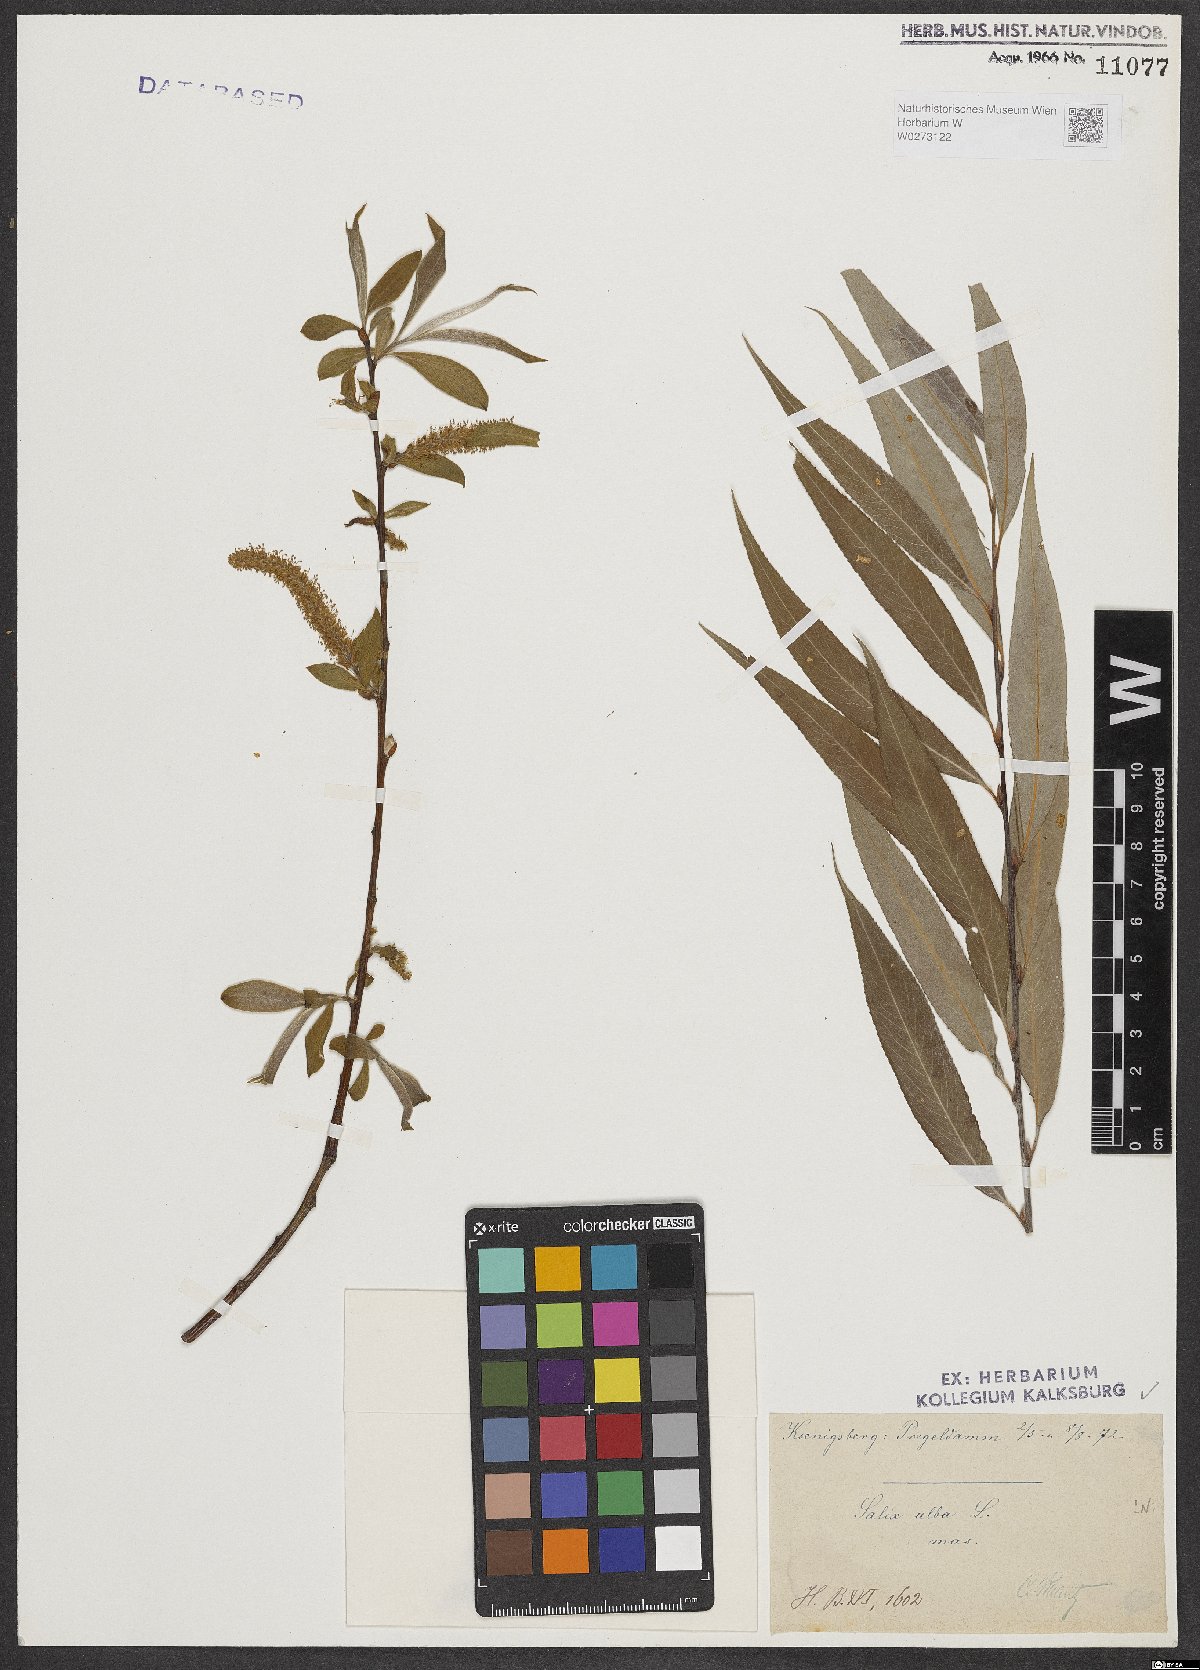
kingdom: Plantae
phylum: Tracheophyta
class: Magnoliopsida
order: Malpighiales
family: Salicaceae
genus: Salix
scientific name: Salix alba
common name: White willow
